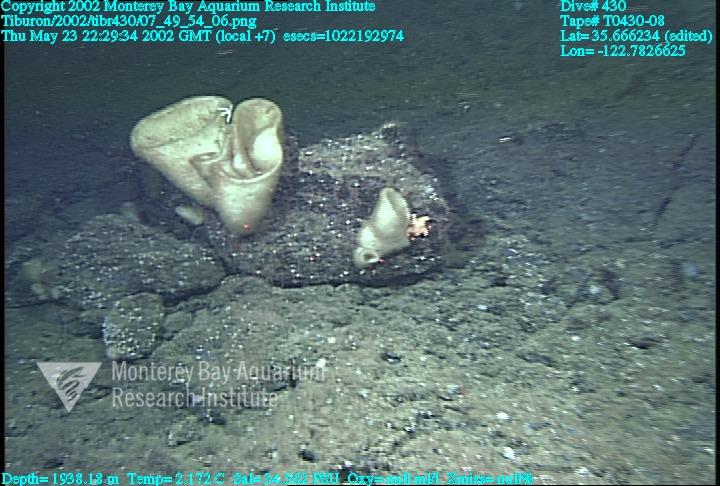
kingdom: Animalia
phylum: Porifera
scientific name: Porifera
